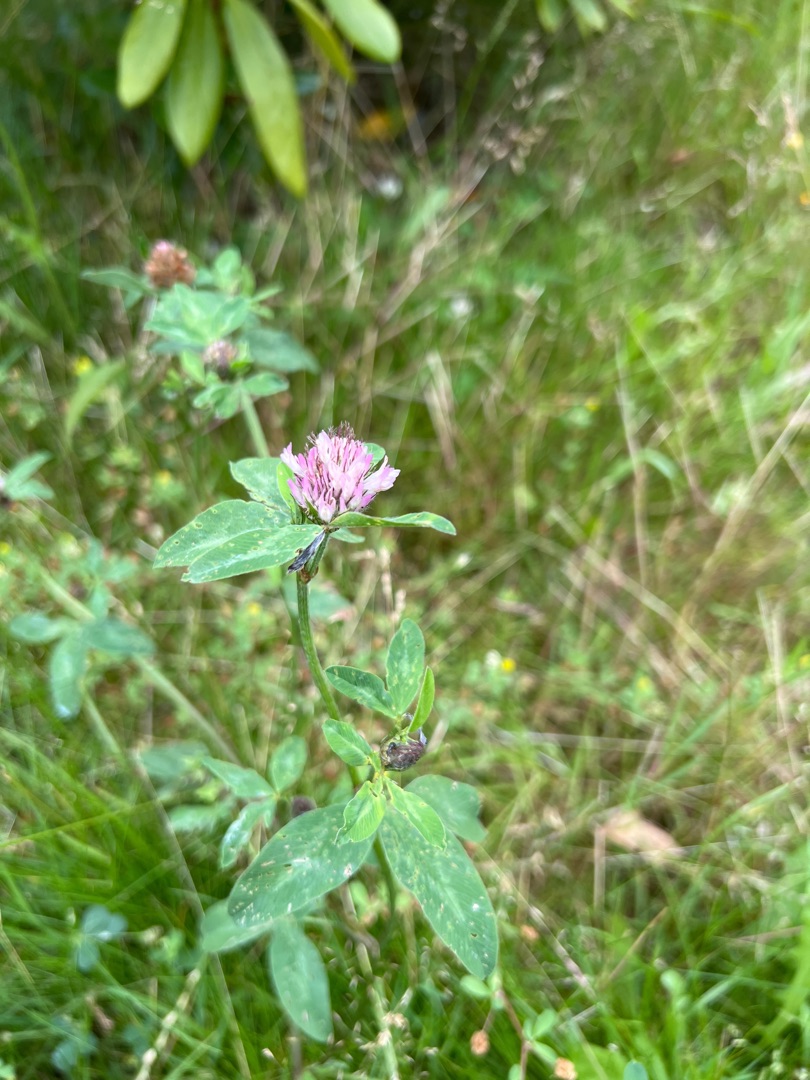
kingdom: Plantae
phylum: Tracheophyta
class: Magnoliopsida
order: Fabales
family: Fabaceae
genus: Trifolium
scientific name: Trifolium pratense
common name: Rød-kløver
